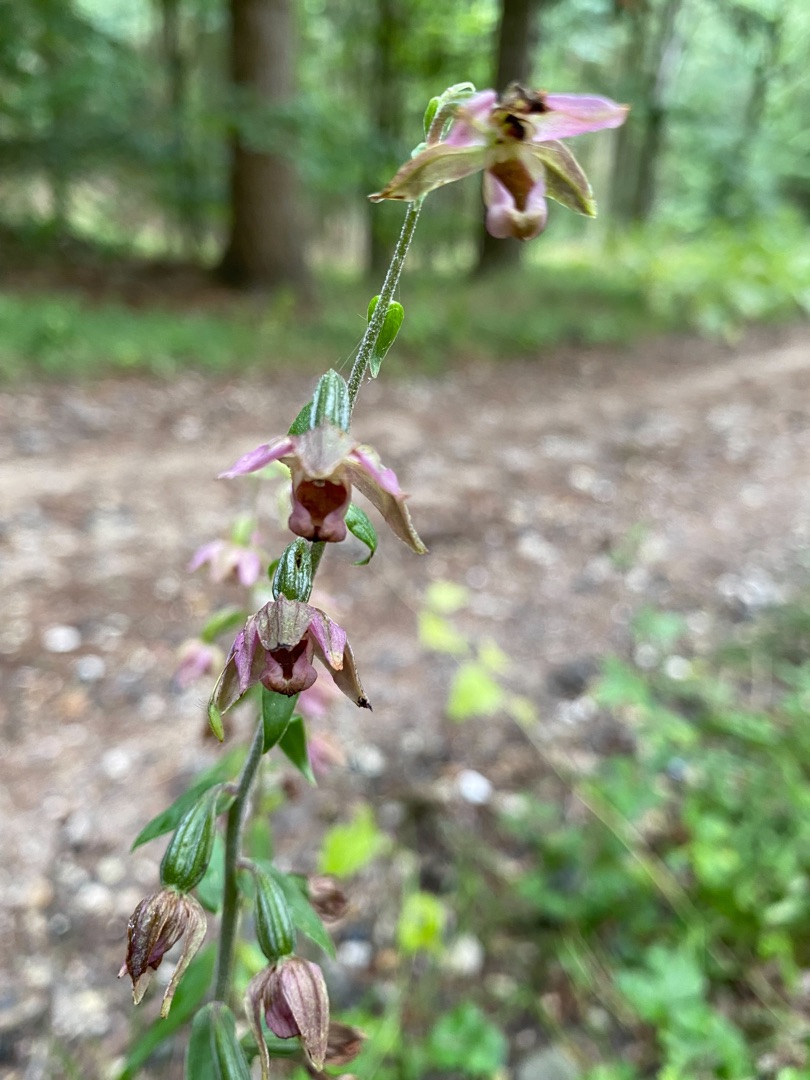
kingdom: Plantae
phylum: Tracheophyta
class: Liliopsida
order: Asparagales
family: Orchidaceae
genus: Epipactis
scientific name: Epipactis helleborine
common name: Skov-hullæbe
